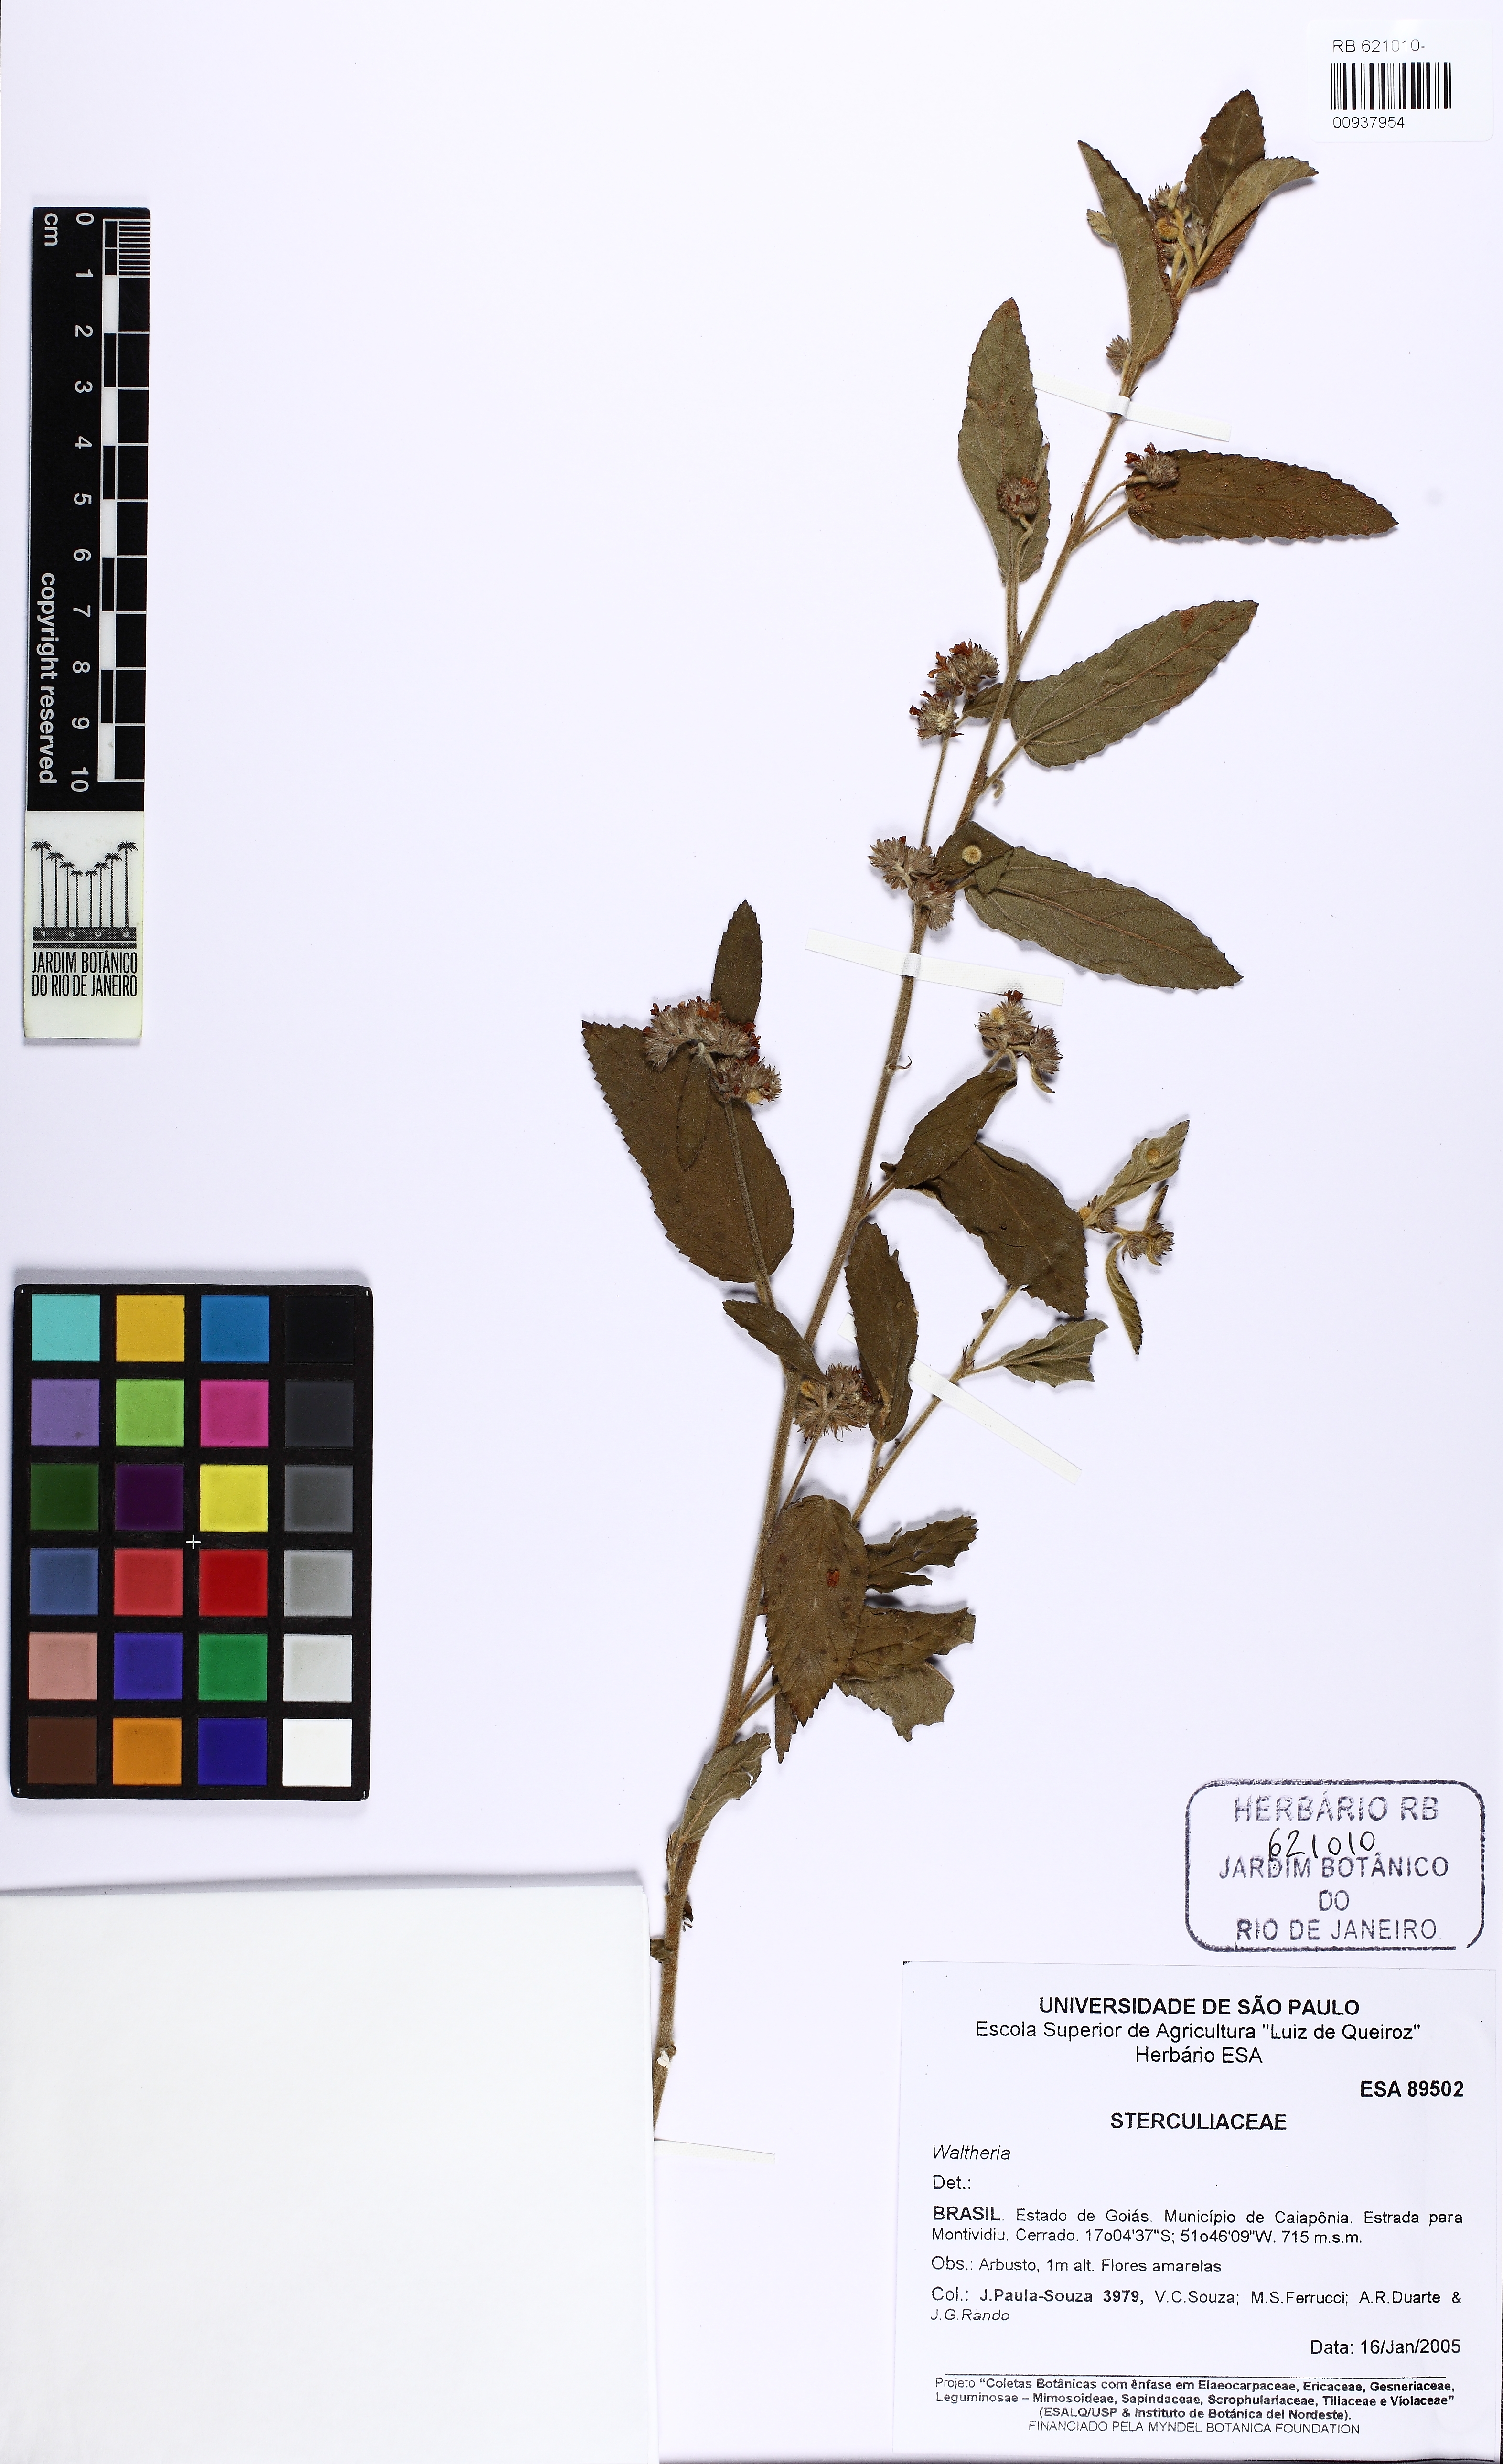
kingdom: Plantae
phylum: Tracheophyta
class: Magnoliopsida
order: Malvales
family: Malvaceae
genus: Waltheria
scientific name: Waltheria
